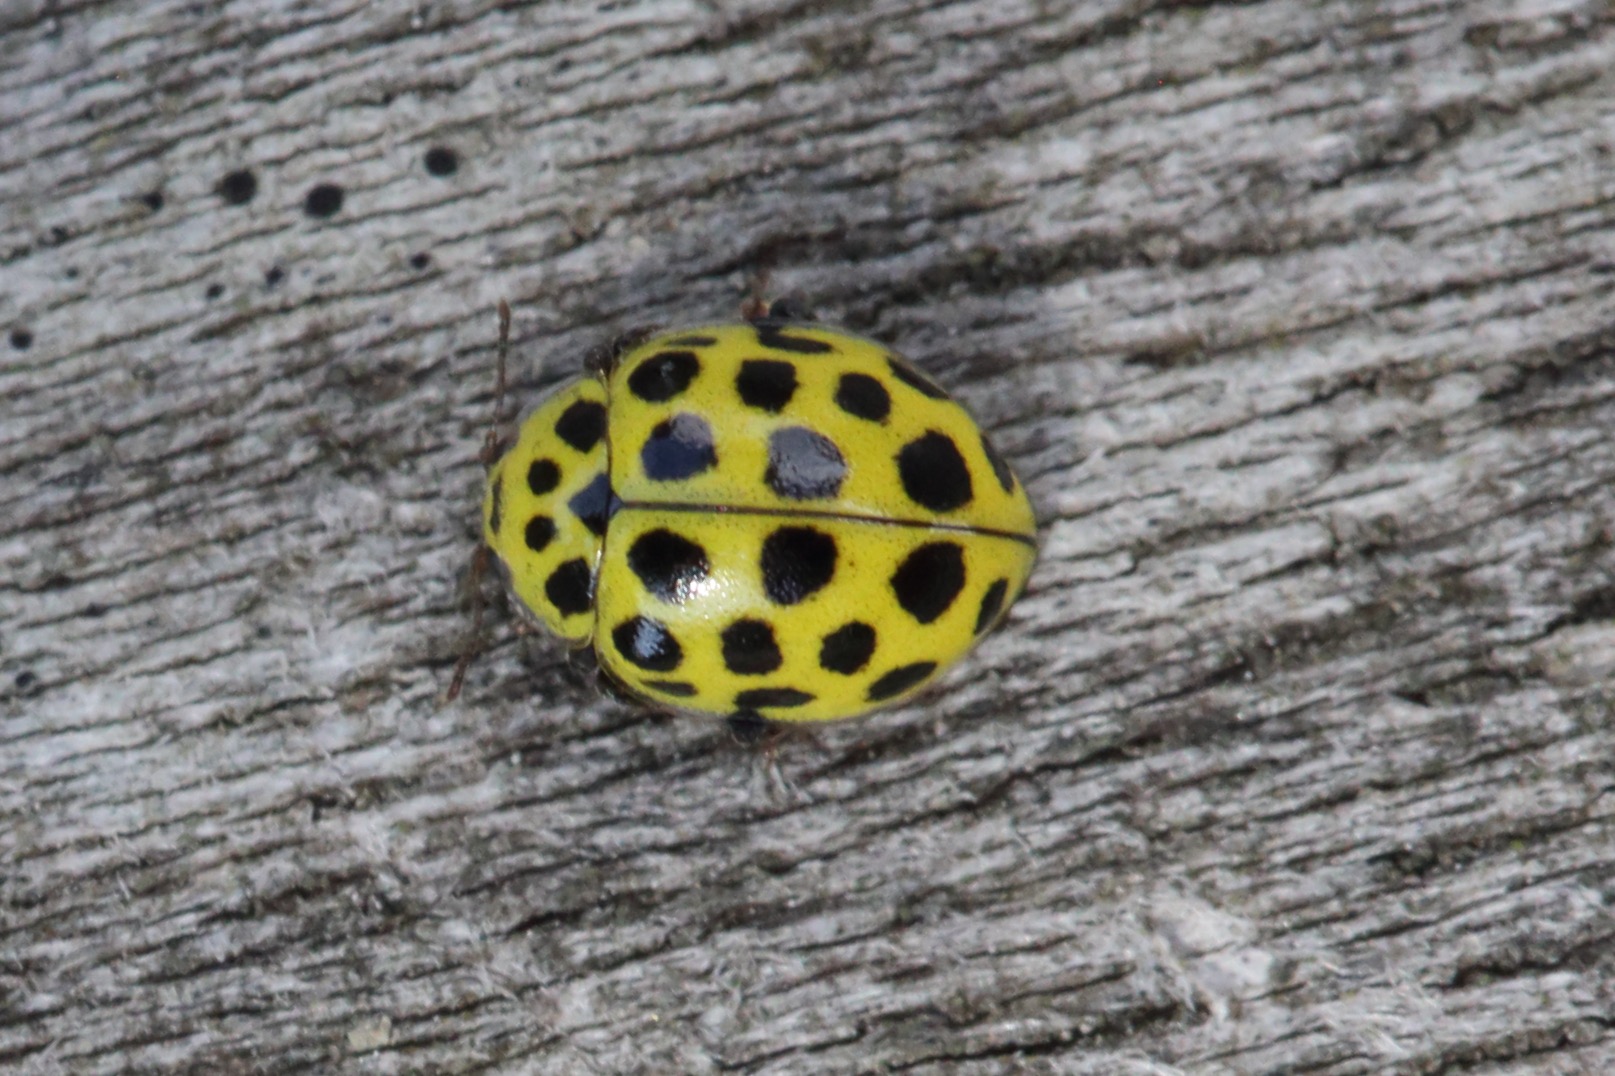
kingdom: Animalia
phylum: Arthropoda
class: Insecta
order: Coleoptera
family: Coccinellidae
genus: Psyllobora
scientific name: Psyllobora vigintiduopunctata
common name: Toogtyveplettet mariehøne
